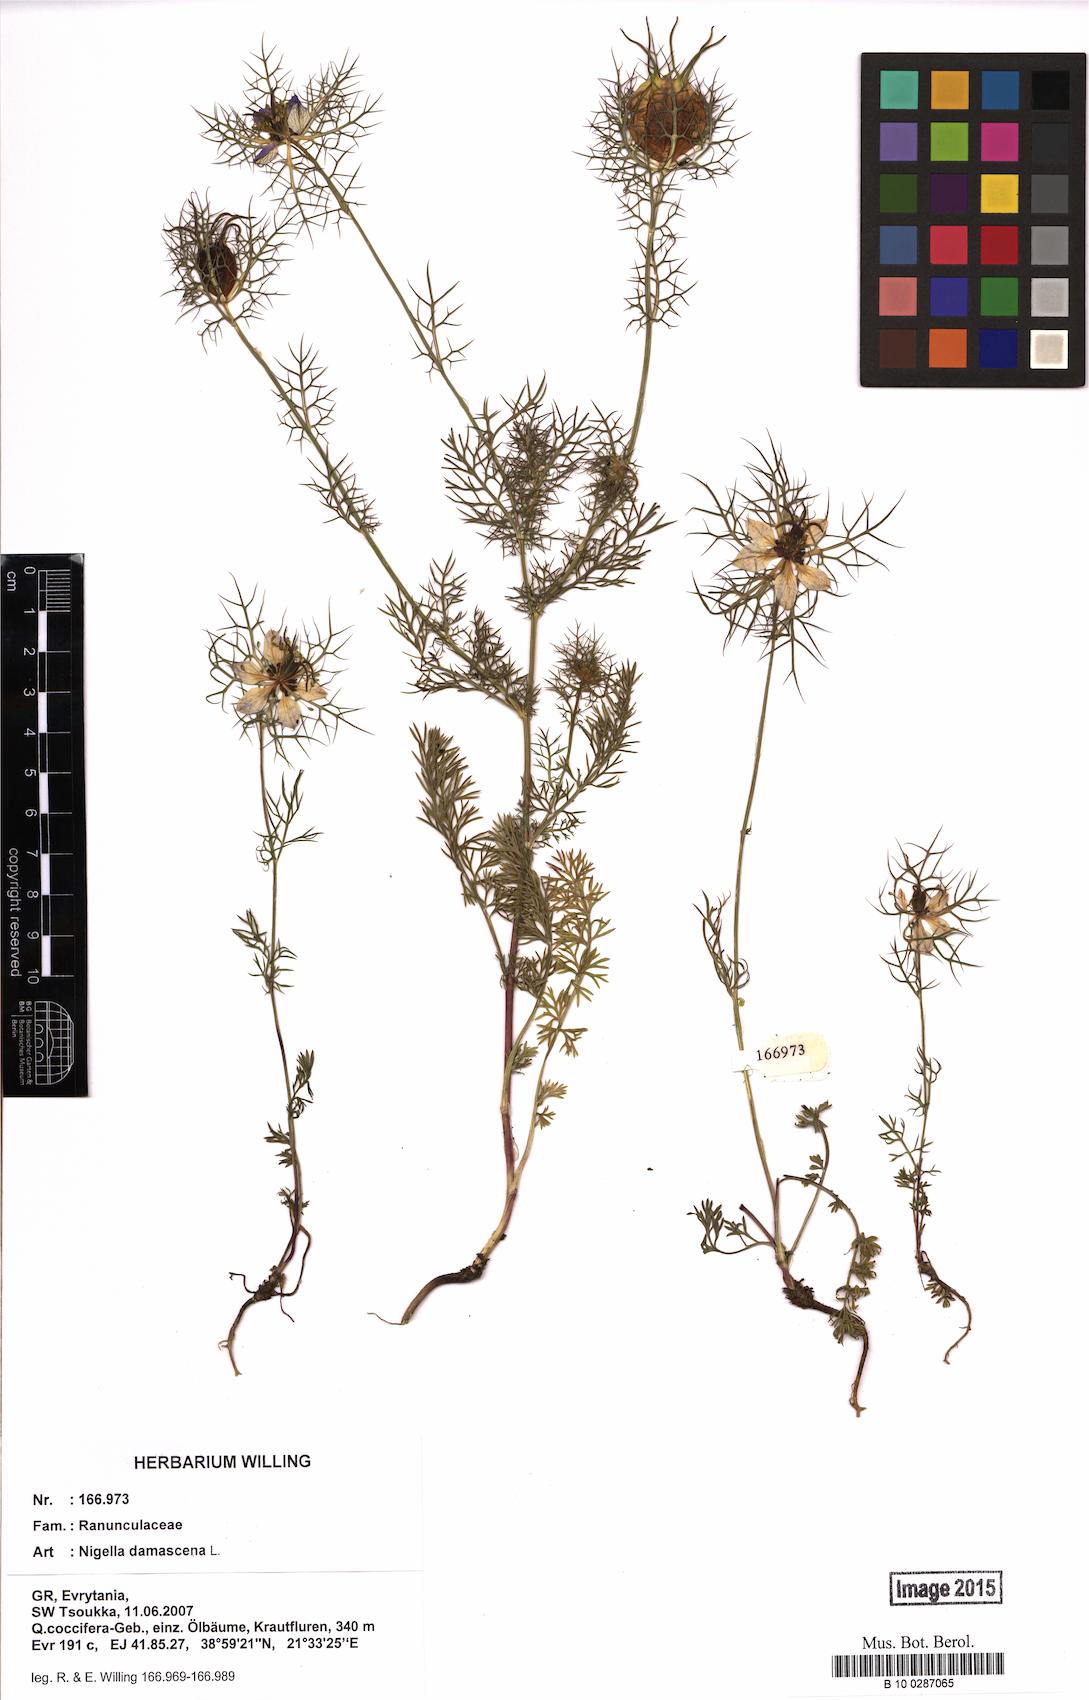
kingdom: Plantae
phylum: Tracheophyta
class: Magnoliopsida
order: Ranunculales
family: Ranunculaceae
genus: Nigella
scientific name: Nigella damascena
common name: Love-in-a-mist
